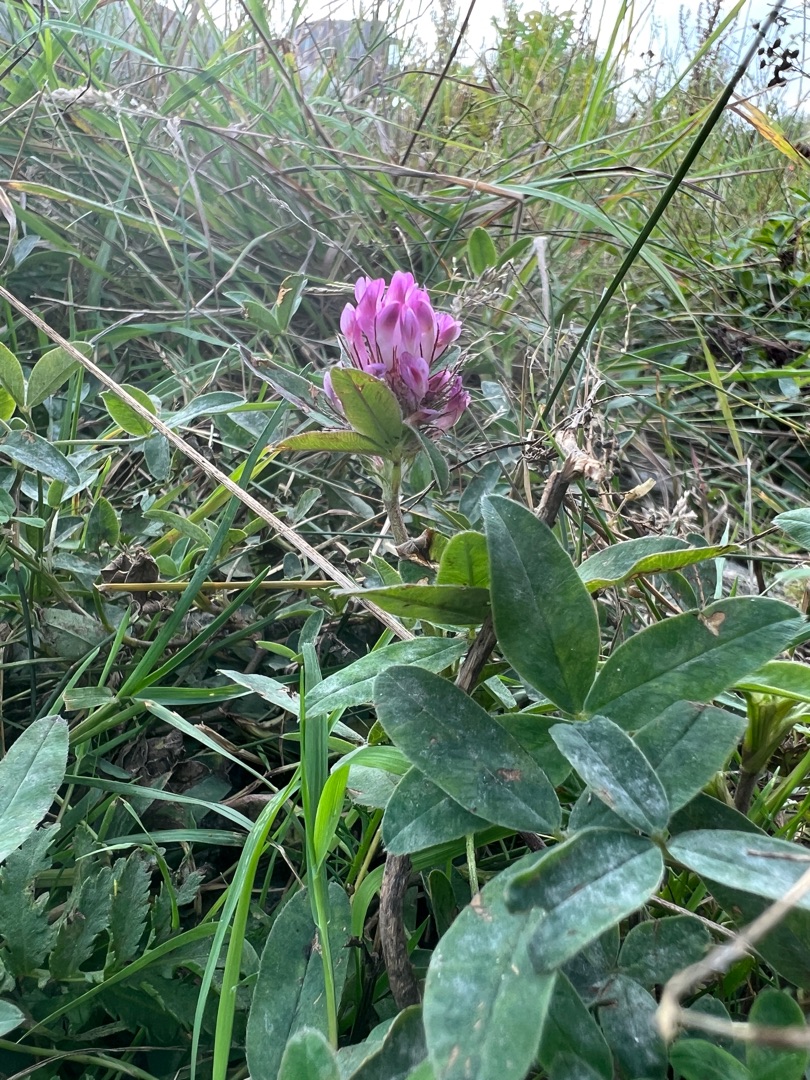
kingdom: Plantae
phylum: Tracheophyta
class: Magnoliopsida
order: Fabales
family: Fabaceae
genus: Trifolium
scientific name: Trifolium medium
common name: Bugtet kløver
